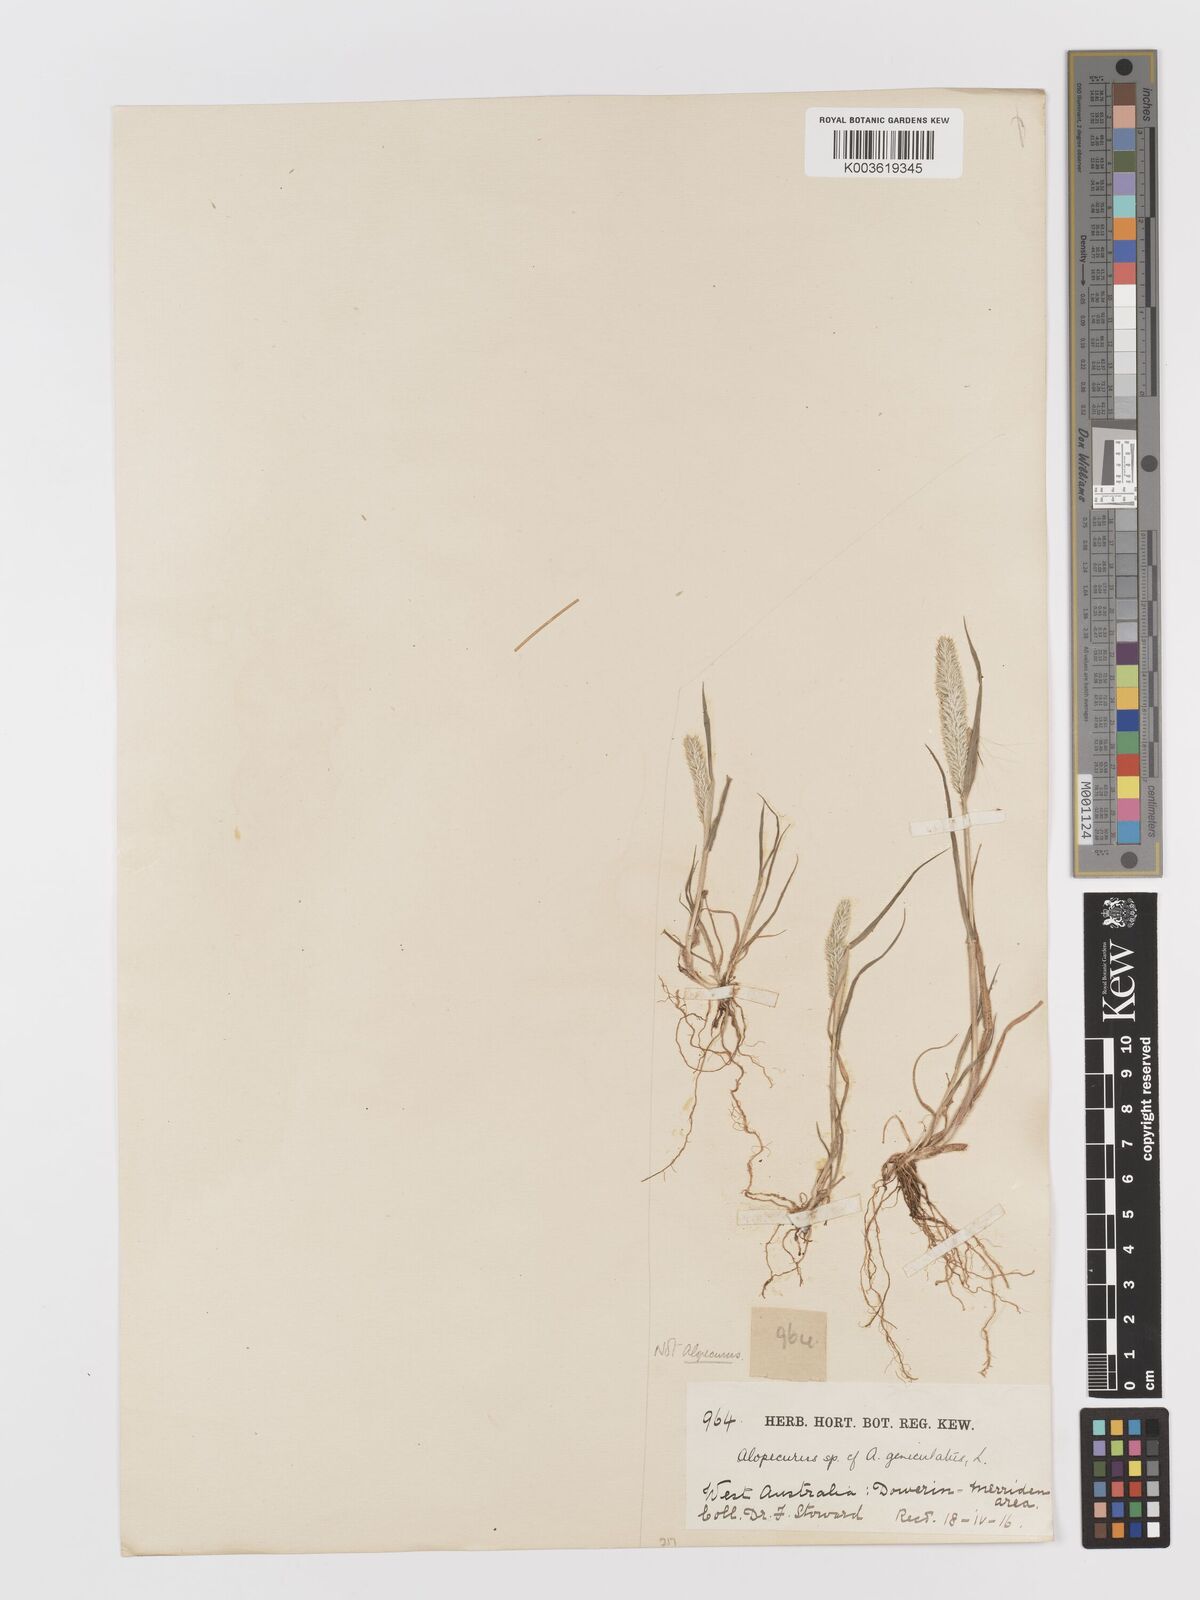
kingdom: Plantae
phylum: Tracheophyta
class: Liliopsida
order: Poales
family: Poaceae
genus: Rostraria
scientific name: Rostraria cristata
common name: Mediterranean hair-grass
